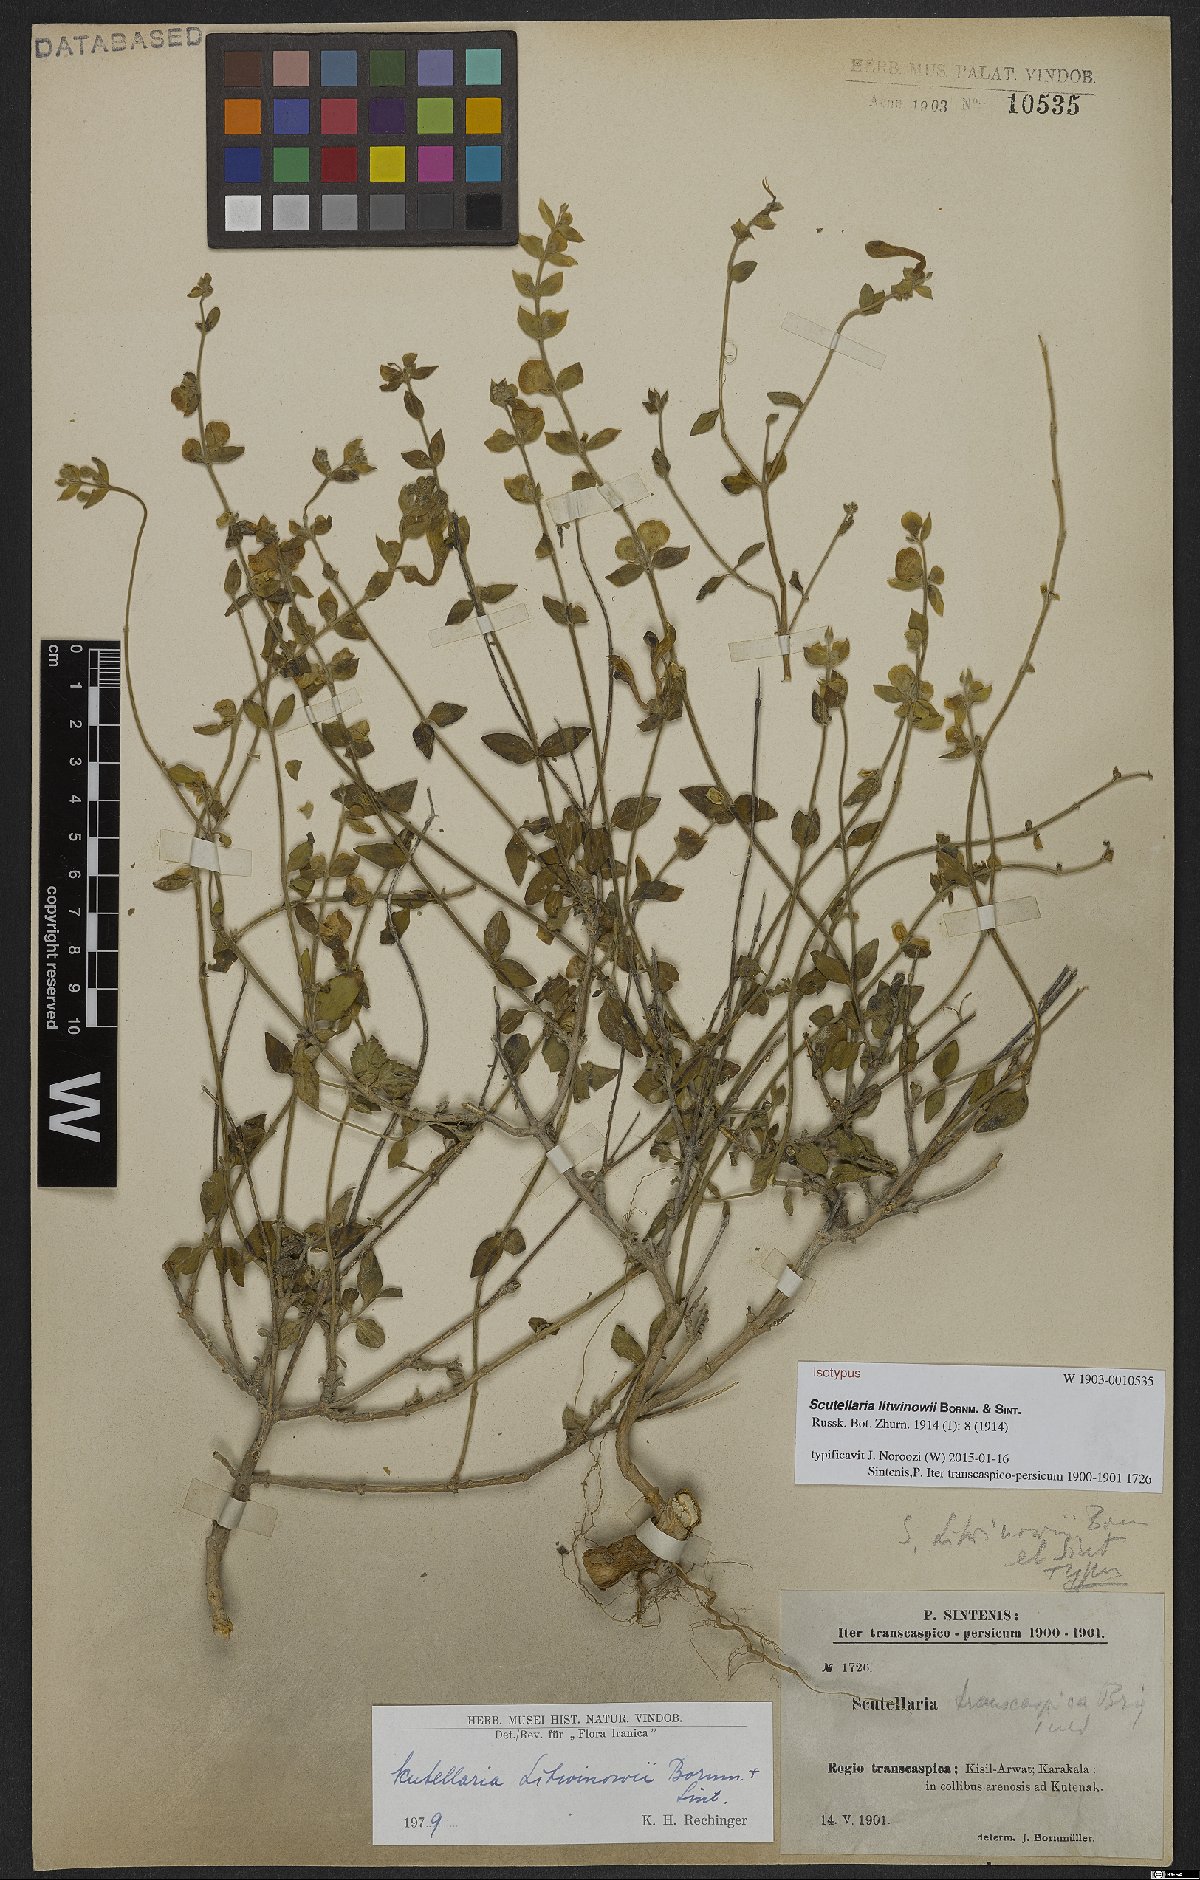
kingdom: Plantae
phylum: Tracheophyta
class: Magnoliopsida
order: Lamiales
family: Lamiaceae
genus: Scutellaria
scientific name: Scutellaria litwinowii
